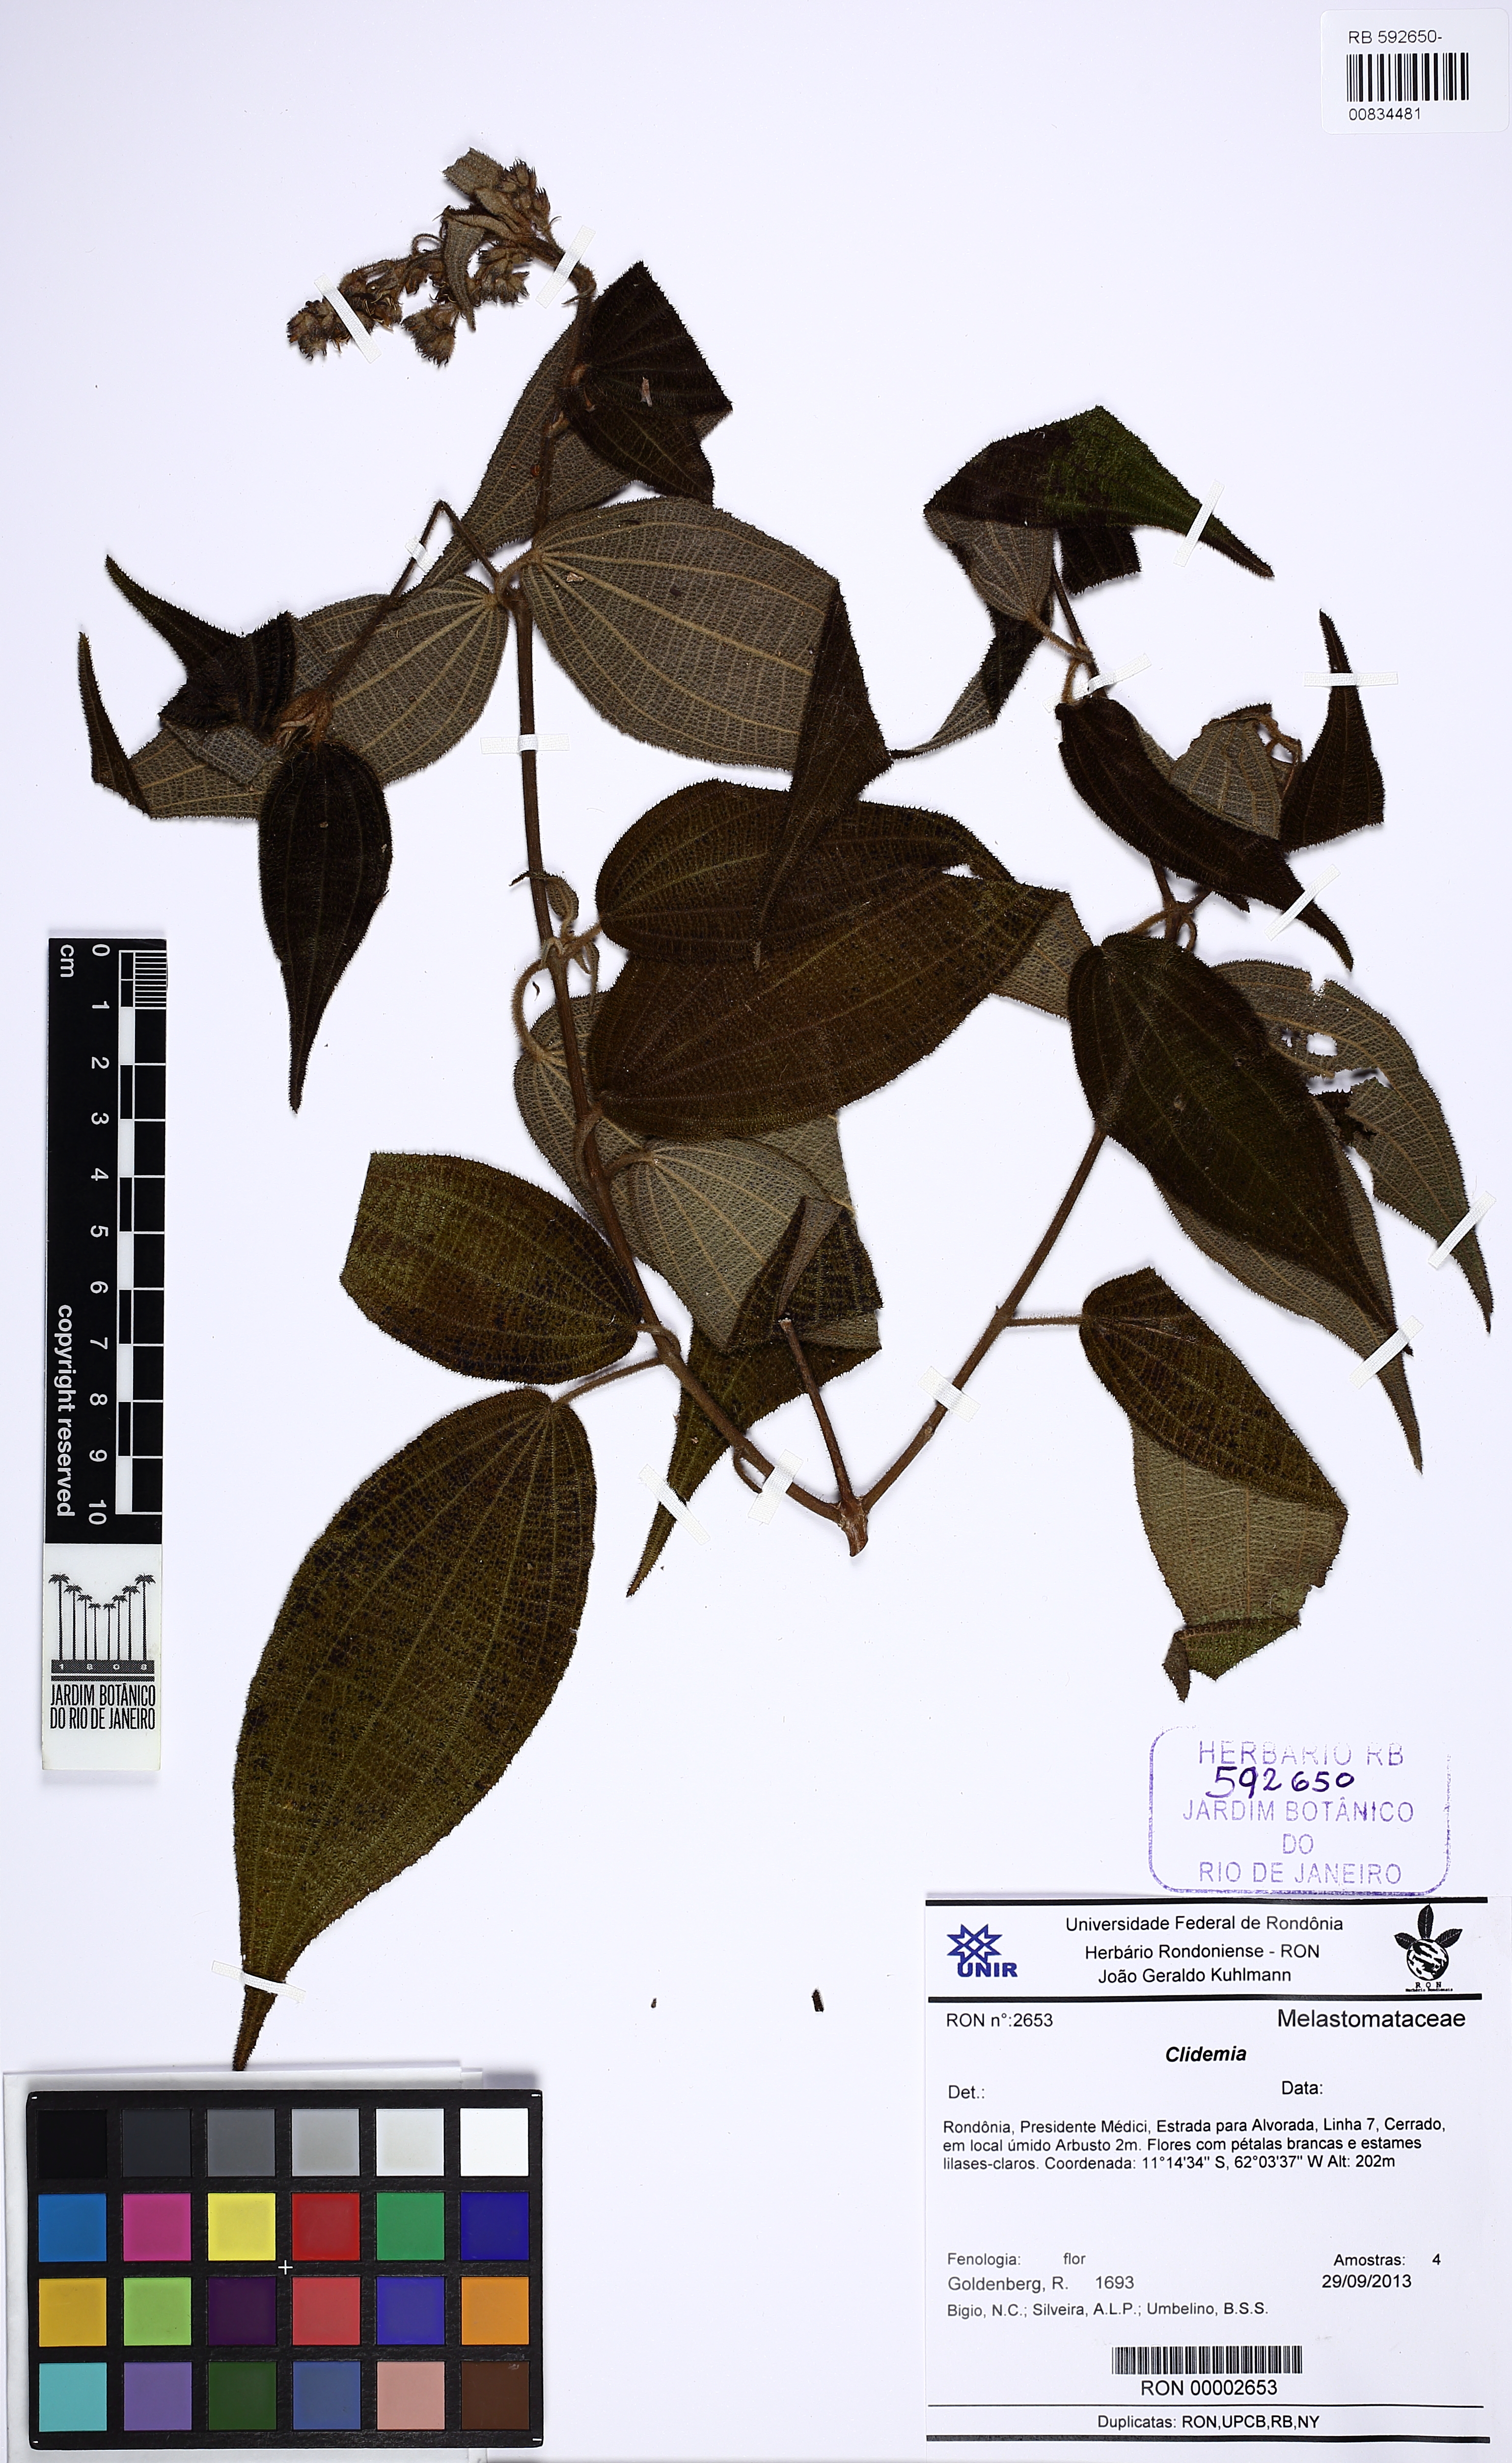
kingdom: Plantae
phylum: Tracheophyta
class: Magnoliopsida
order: Myrtales
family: Melastomataceae
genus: Miconia
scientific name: Miconia bullatifolia
